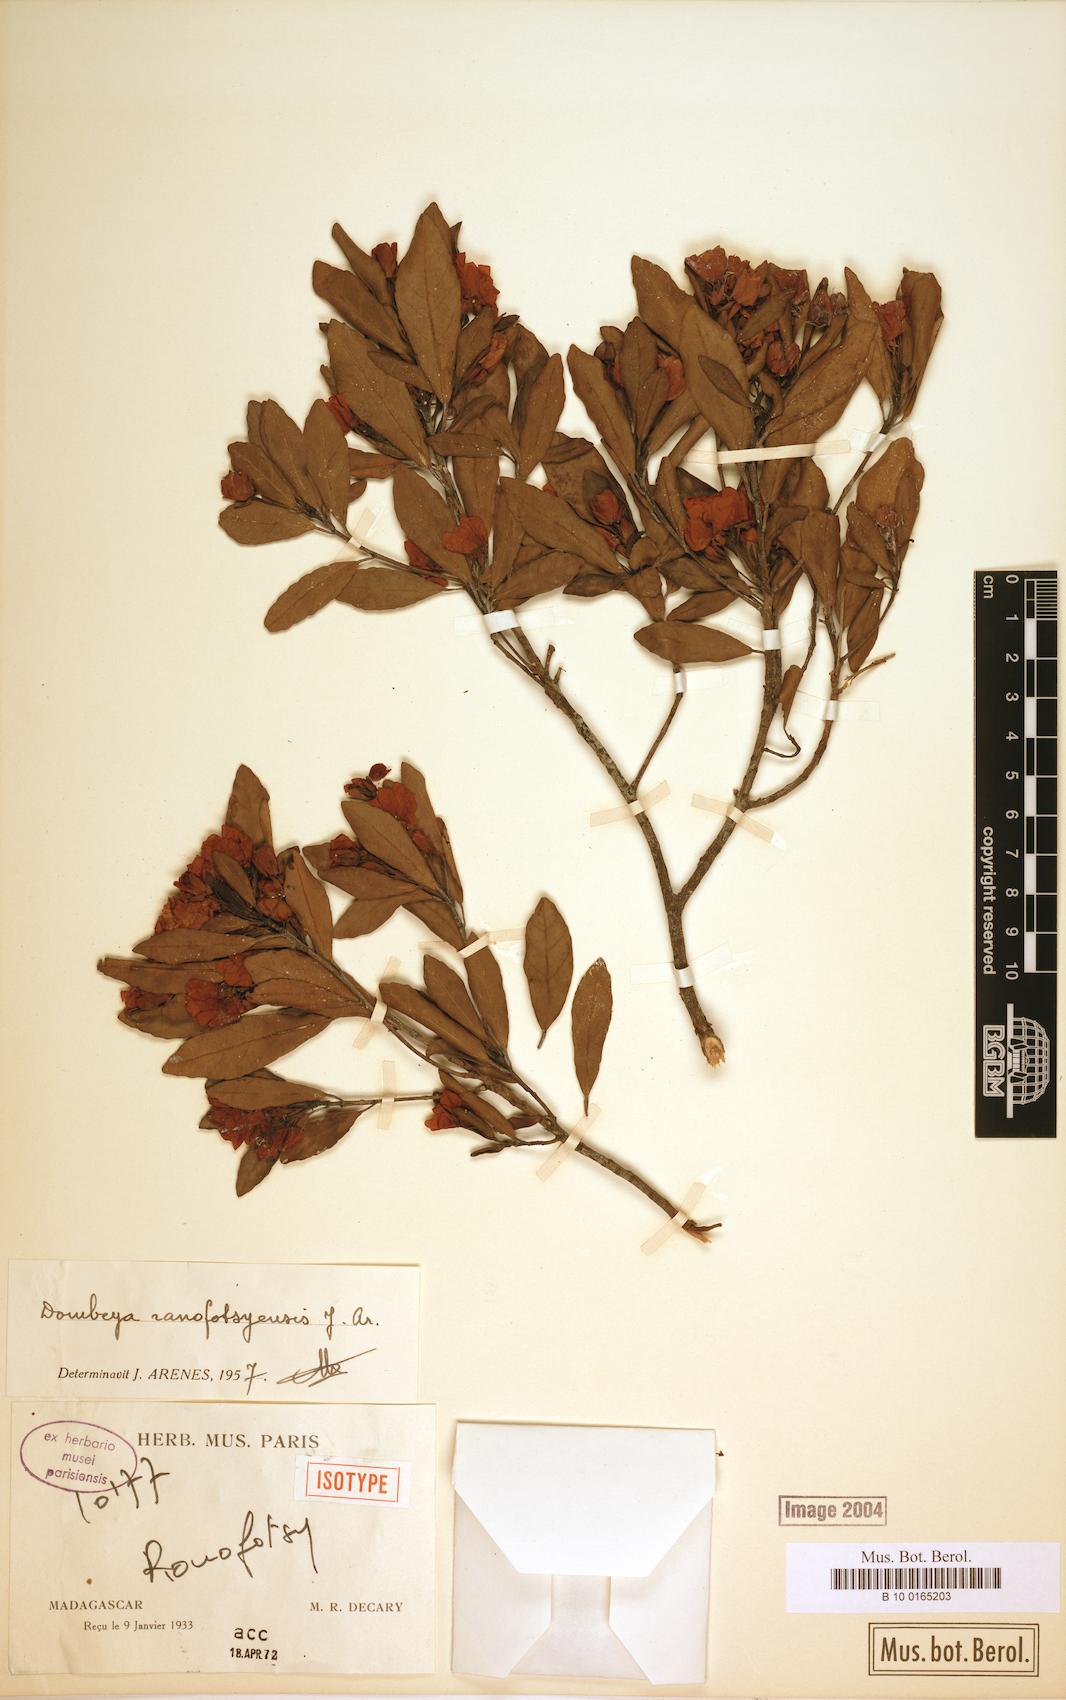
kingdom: Plantae
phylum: Tracheophyta
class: Magnoliopsida
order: Malvales
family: Malvaceae
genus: Dombeya
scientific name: Dombeya ranofotsyensis
